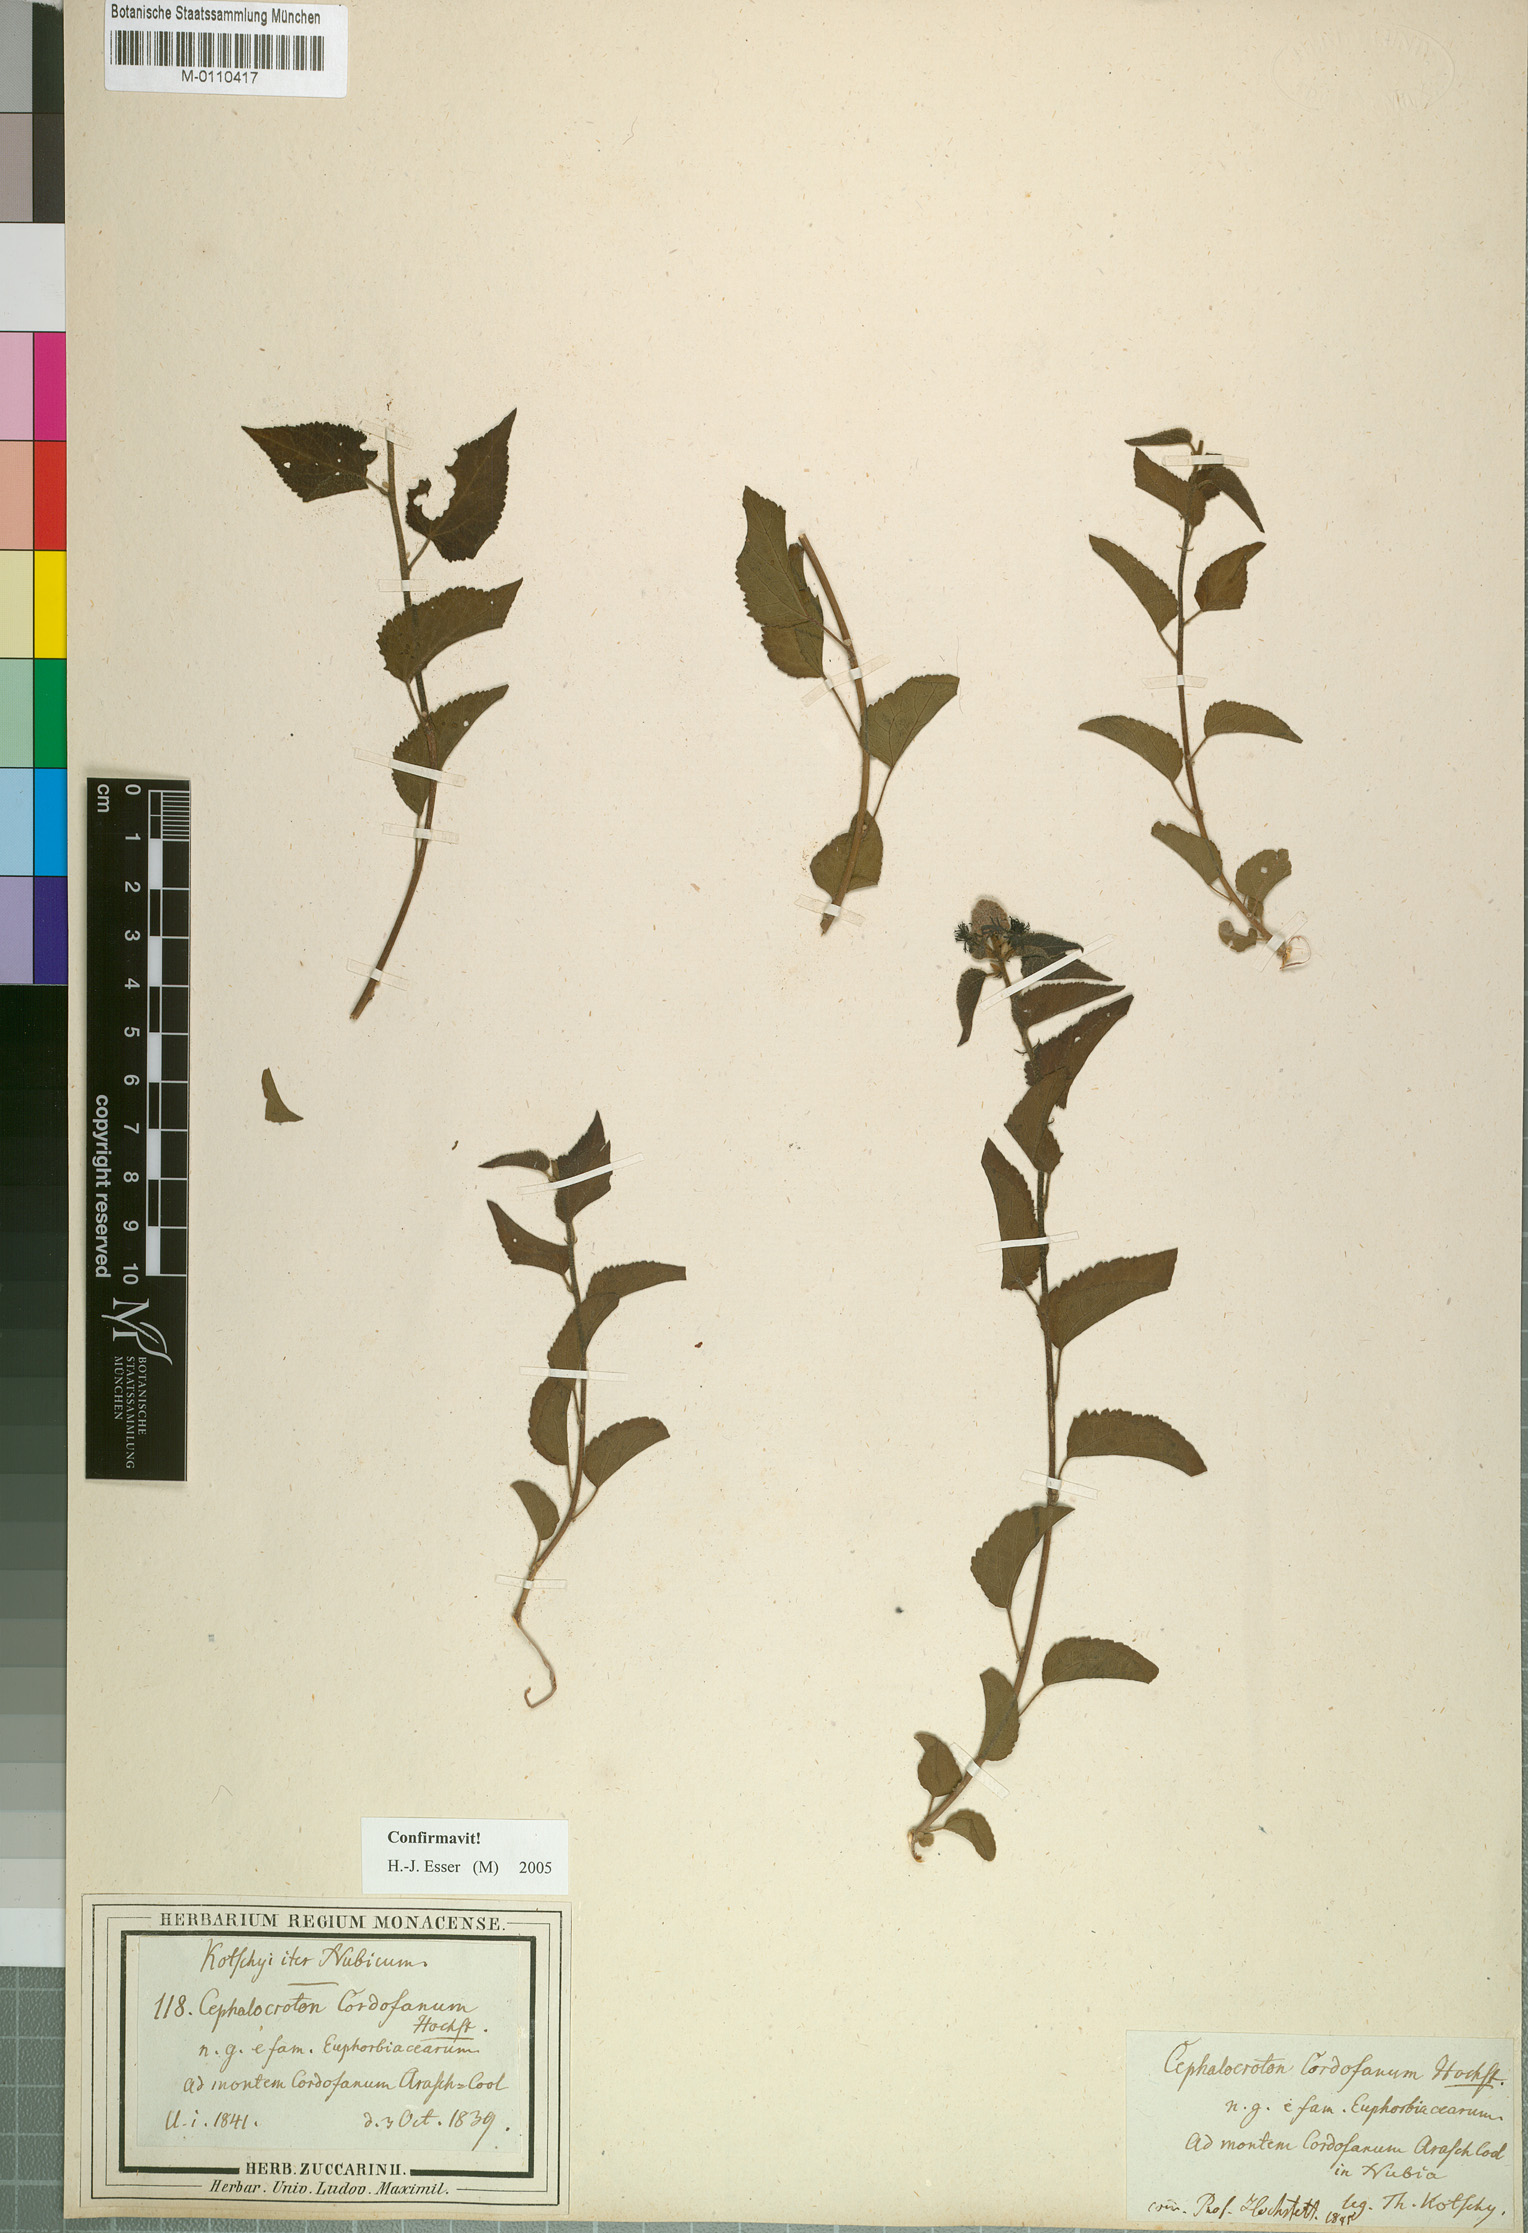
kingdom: Plantae
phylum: Tracheophyta
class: Magnoliopsida
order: Malpighiales
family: Euphorbiaceae
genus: Cephalocroton
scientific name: Cephalocroton cordofanus
